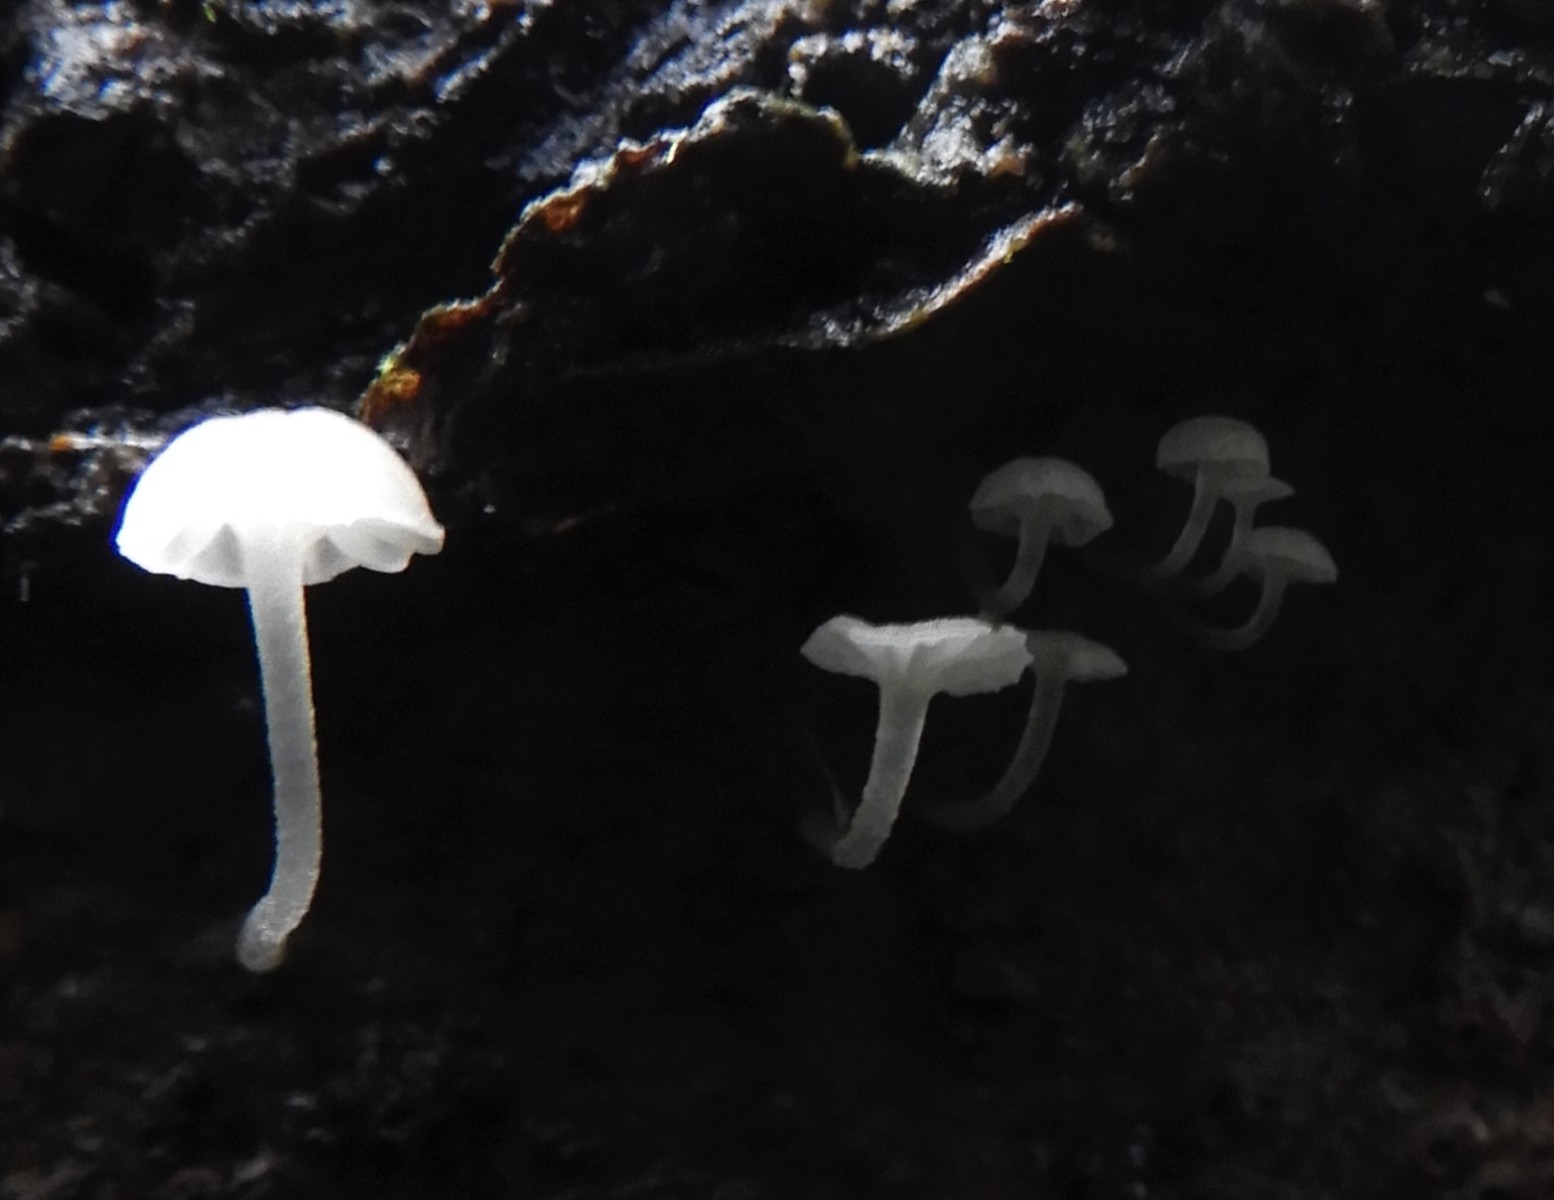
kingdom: Fungi
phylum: Basidiomycota
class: Agaricomycetes
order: Agaricales
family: Porotheleaceae
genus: Phloeomana
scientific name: Phloeomana speirea
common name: kvist-huesvamp
